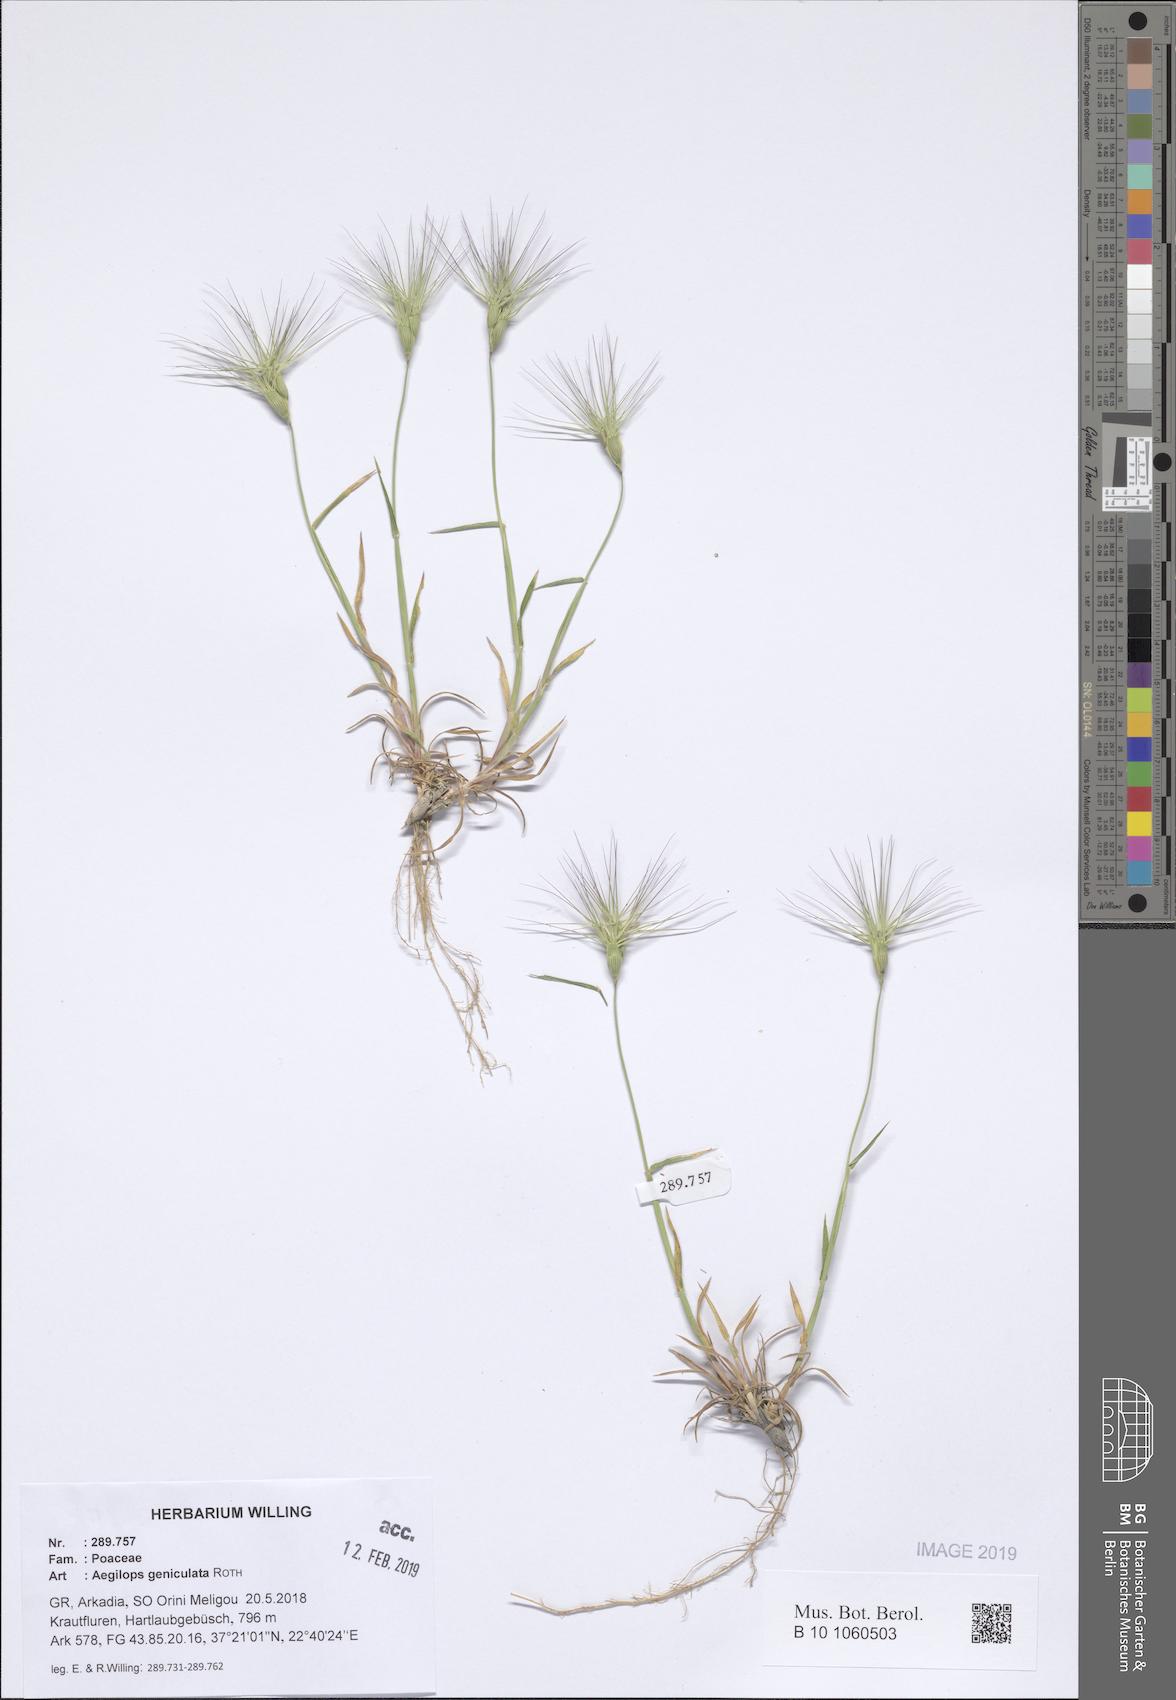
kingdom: Plantae
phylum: Tracheophyta
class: Liliopsida
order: Poales
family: Poaceae
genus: Aegilops
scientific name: Aegilops geniculata
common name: Ovate goat grass
